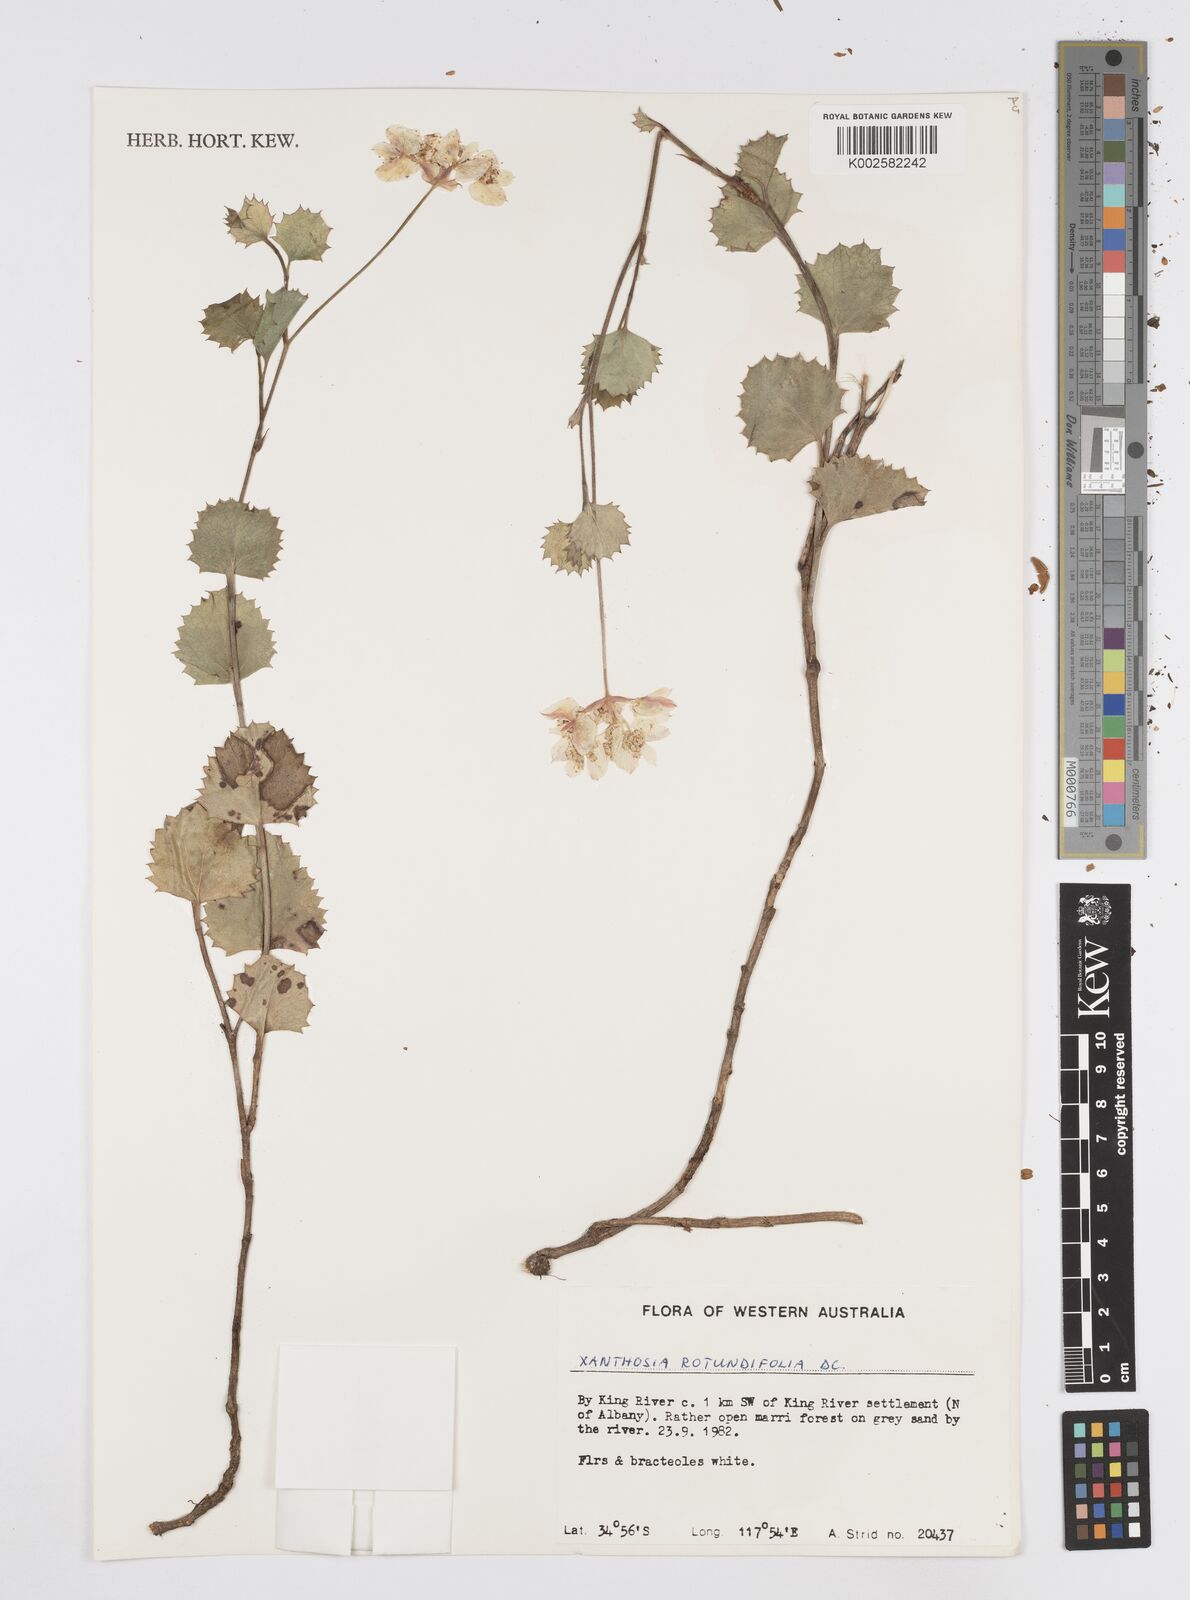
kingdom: Plantae
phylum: Tracheophyta
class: Magnoliopsida
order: Apiales
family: Apiaceae
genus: Xanthosia
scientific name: Xanthosia rotundifolia
